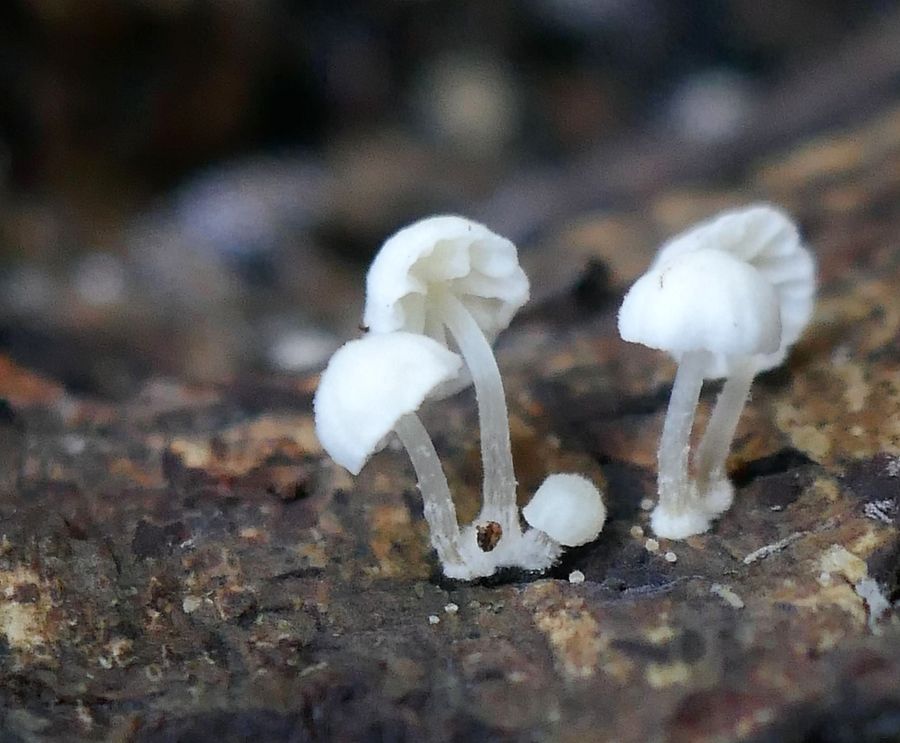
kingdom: Fungi
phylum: Basidiomycota
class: Agaricomycetes
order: Agaricales
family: Mycenaceae
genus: Mycena
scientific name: Mycena clavularis
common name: dunskivet huesvamp
